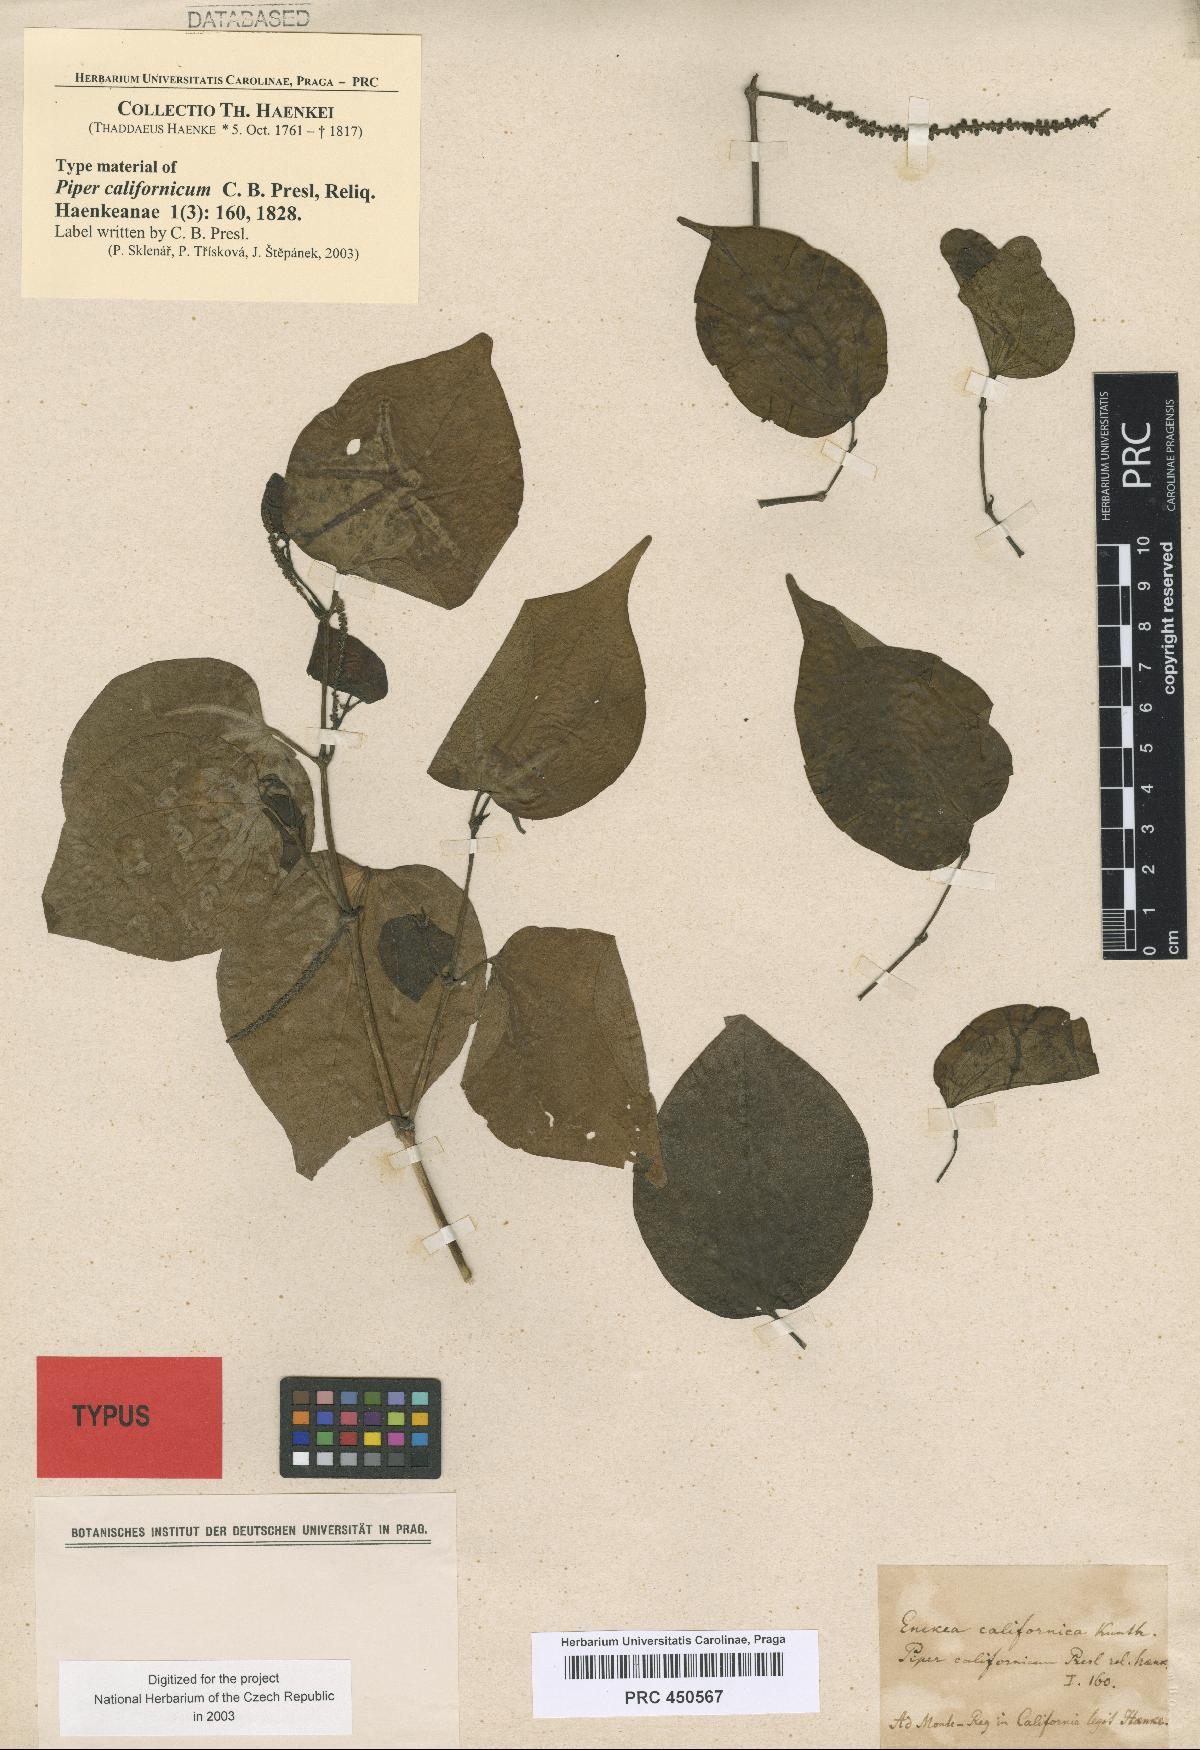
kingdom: Plantae
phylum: Tracheophyta
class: Magnoliopsida
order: Piperales
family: Piperaceae
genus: Piper
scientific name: Piper triquetrum
